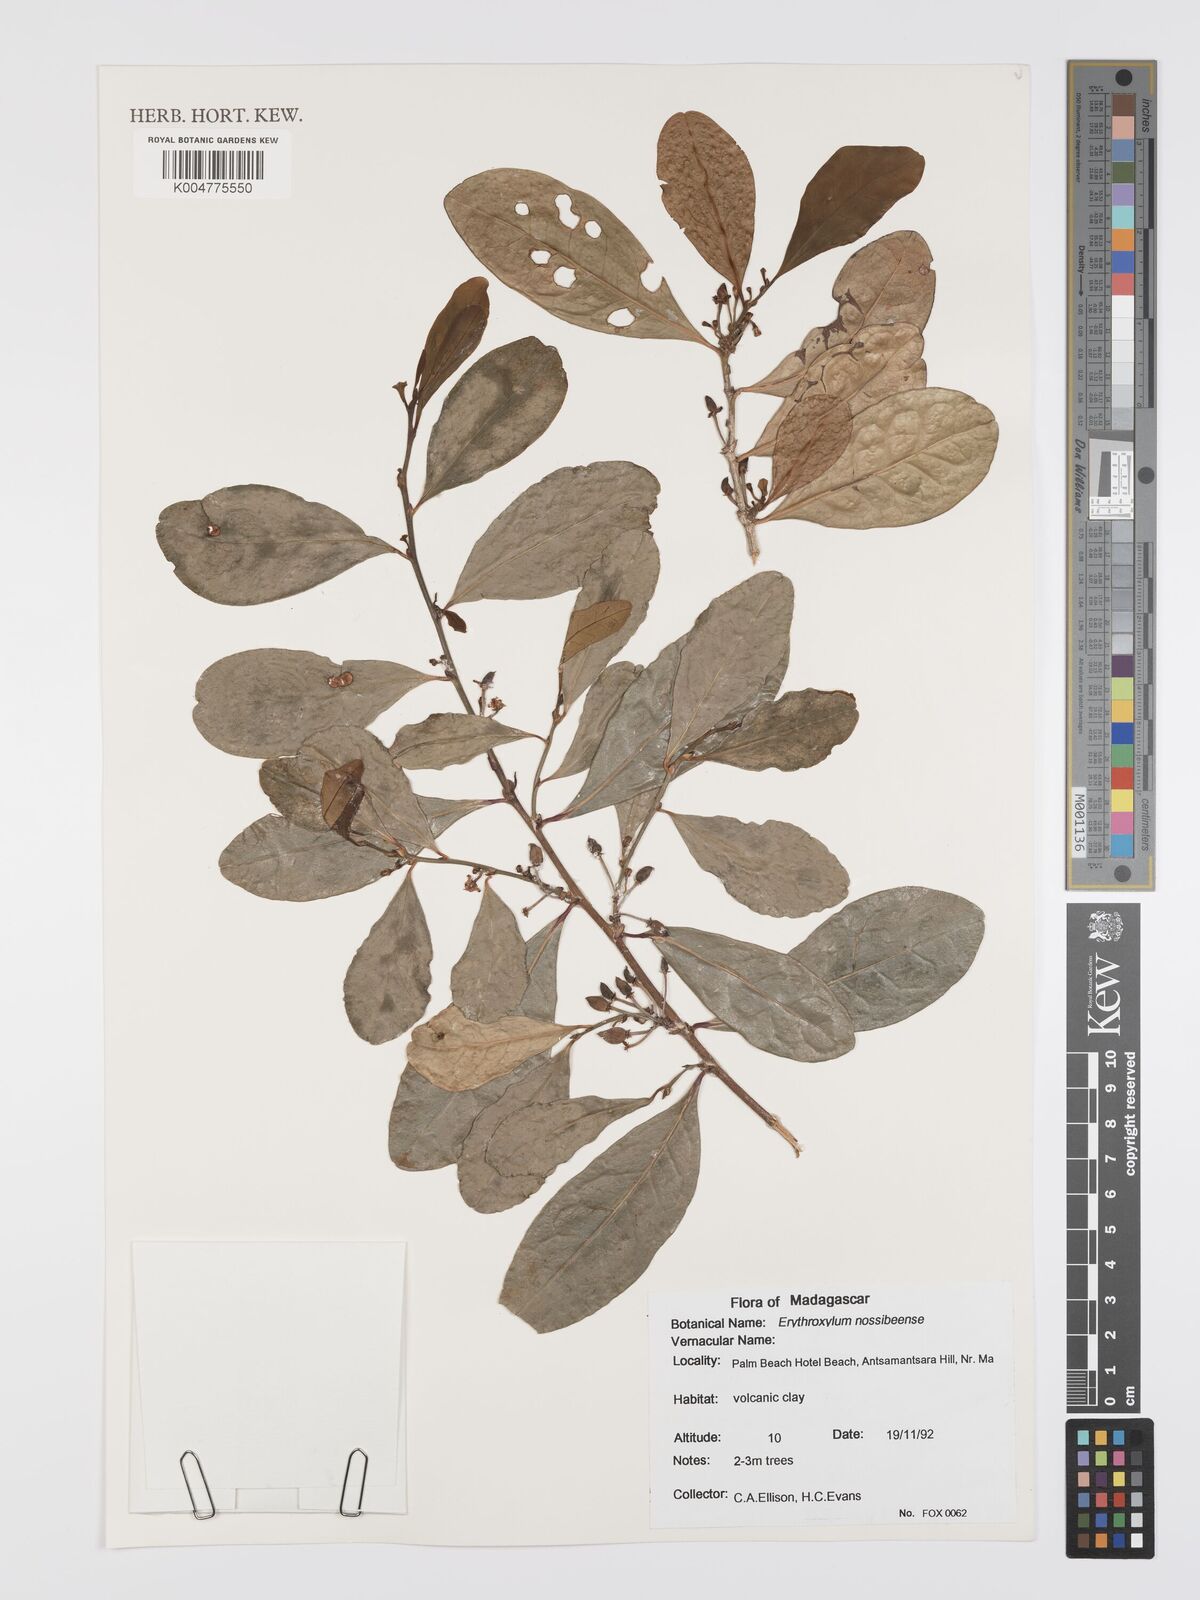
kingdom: Plantae
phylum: Tracheophyta
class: Magnoliopsida
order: Malpighiales
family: Erythroxylaceae
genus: Erythroxylum
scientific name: Erythroxylum nossibeense
